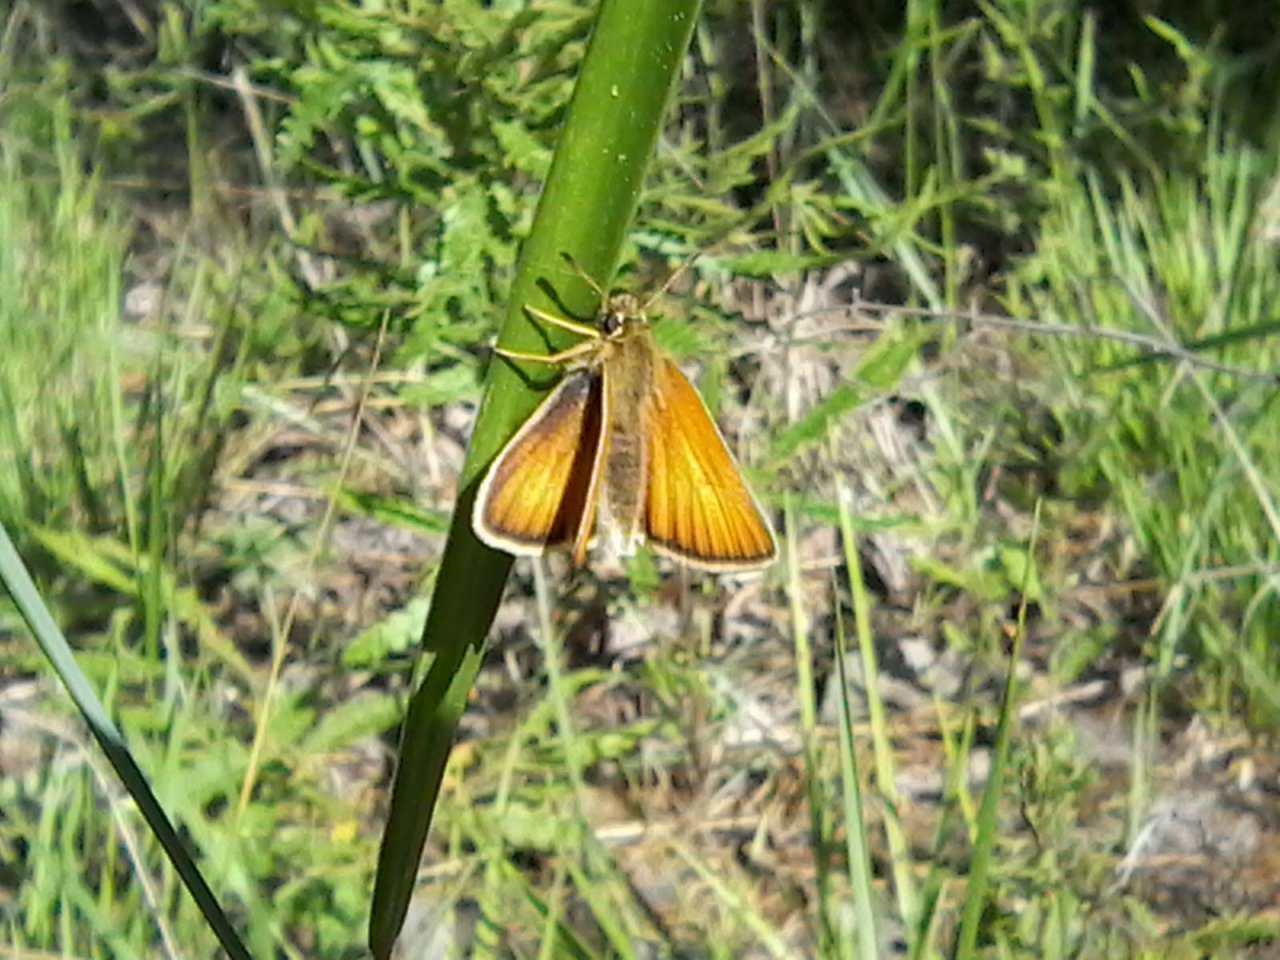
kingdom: Animalia
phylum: Arthropoda
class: Insecta
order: Lepidoptera
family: Hesperiidae
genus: Thymelicus
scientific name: Thymelicus lineola
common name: European Skipper
